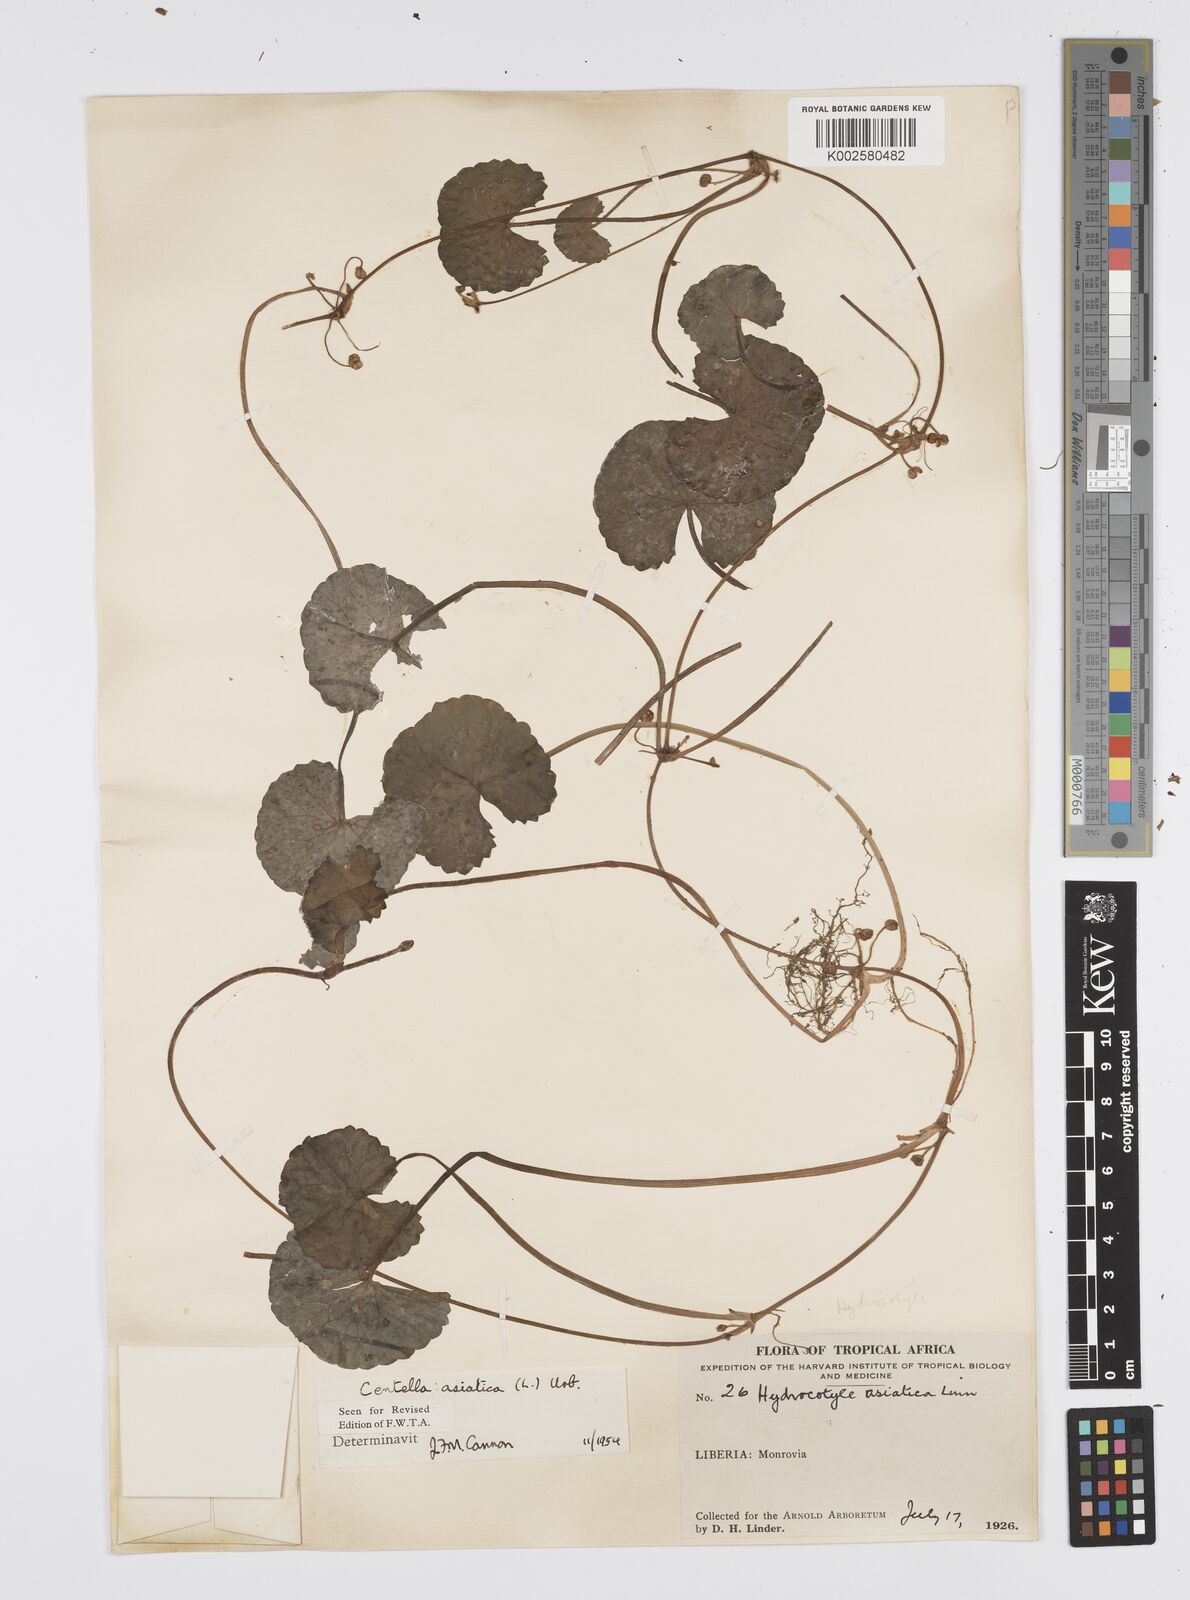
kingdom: Plantae
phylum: Tracheophyta
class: Magnoliopsida
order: Apiales
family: Apiaceae
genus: Centella
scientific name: Centella asiatica
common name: Spadeleaf
